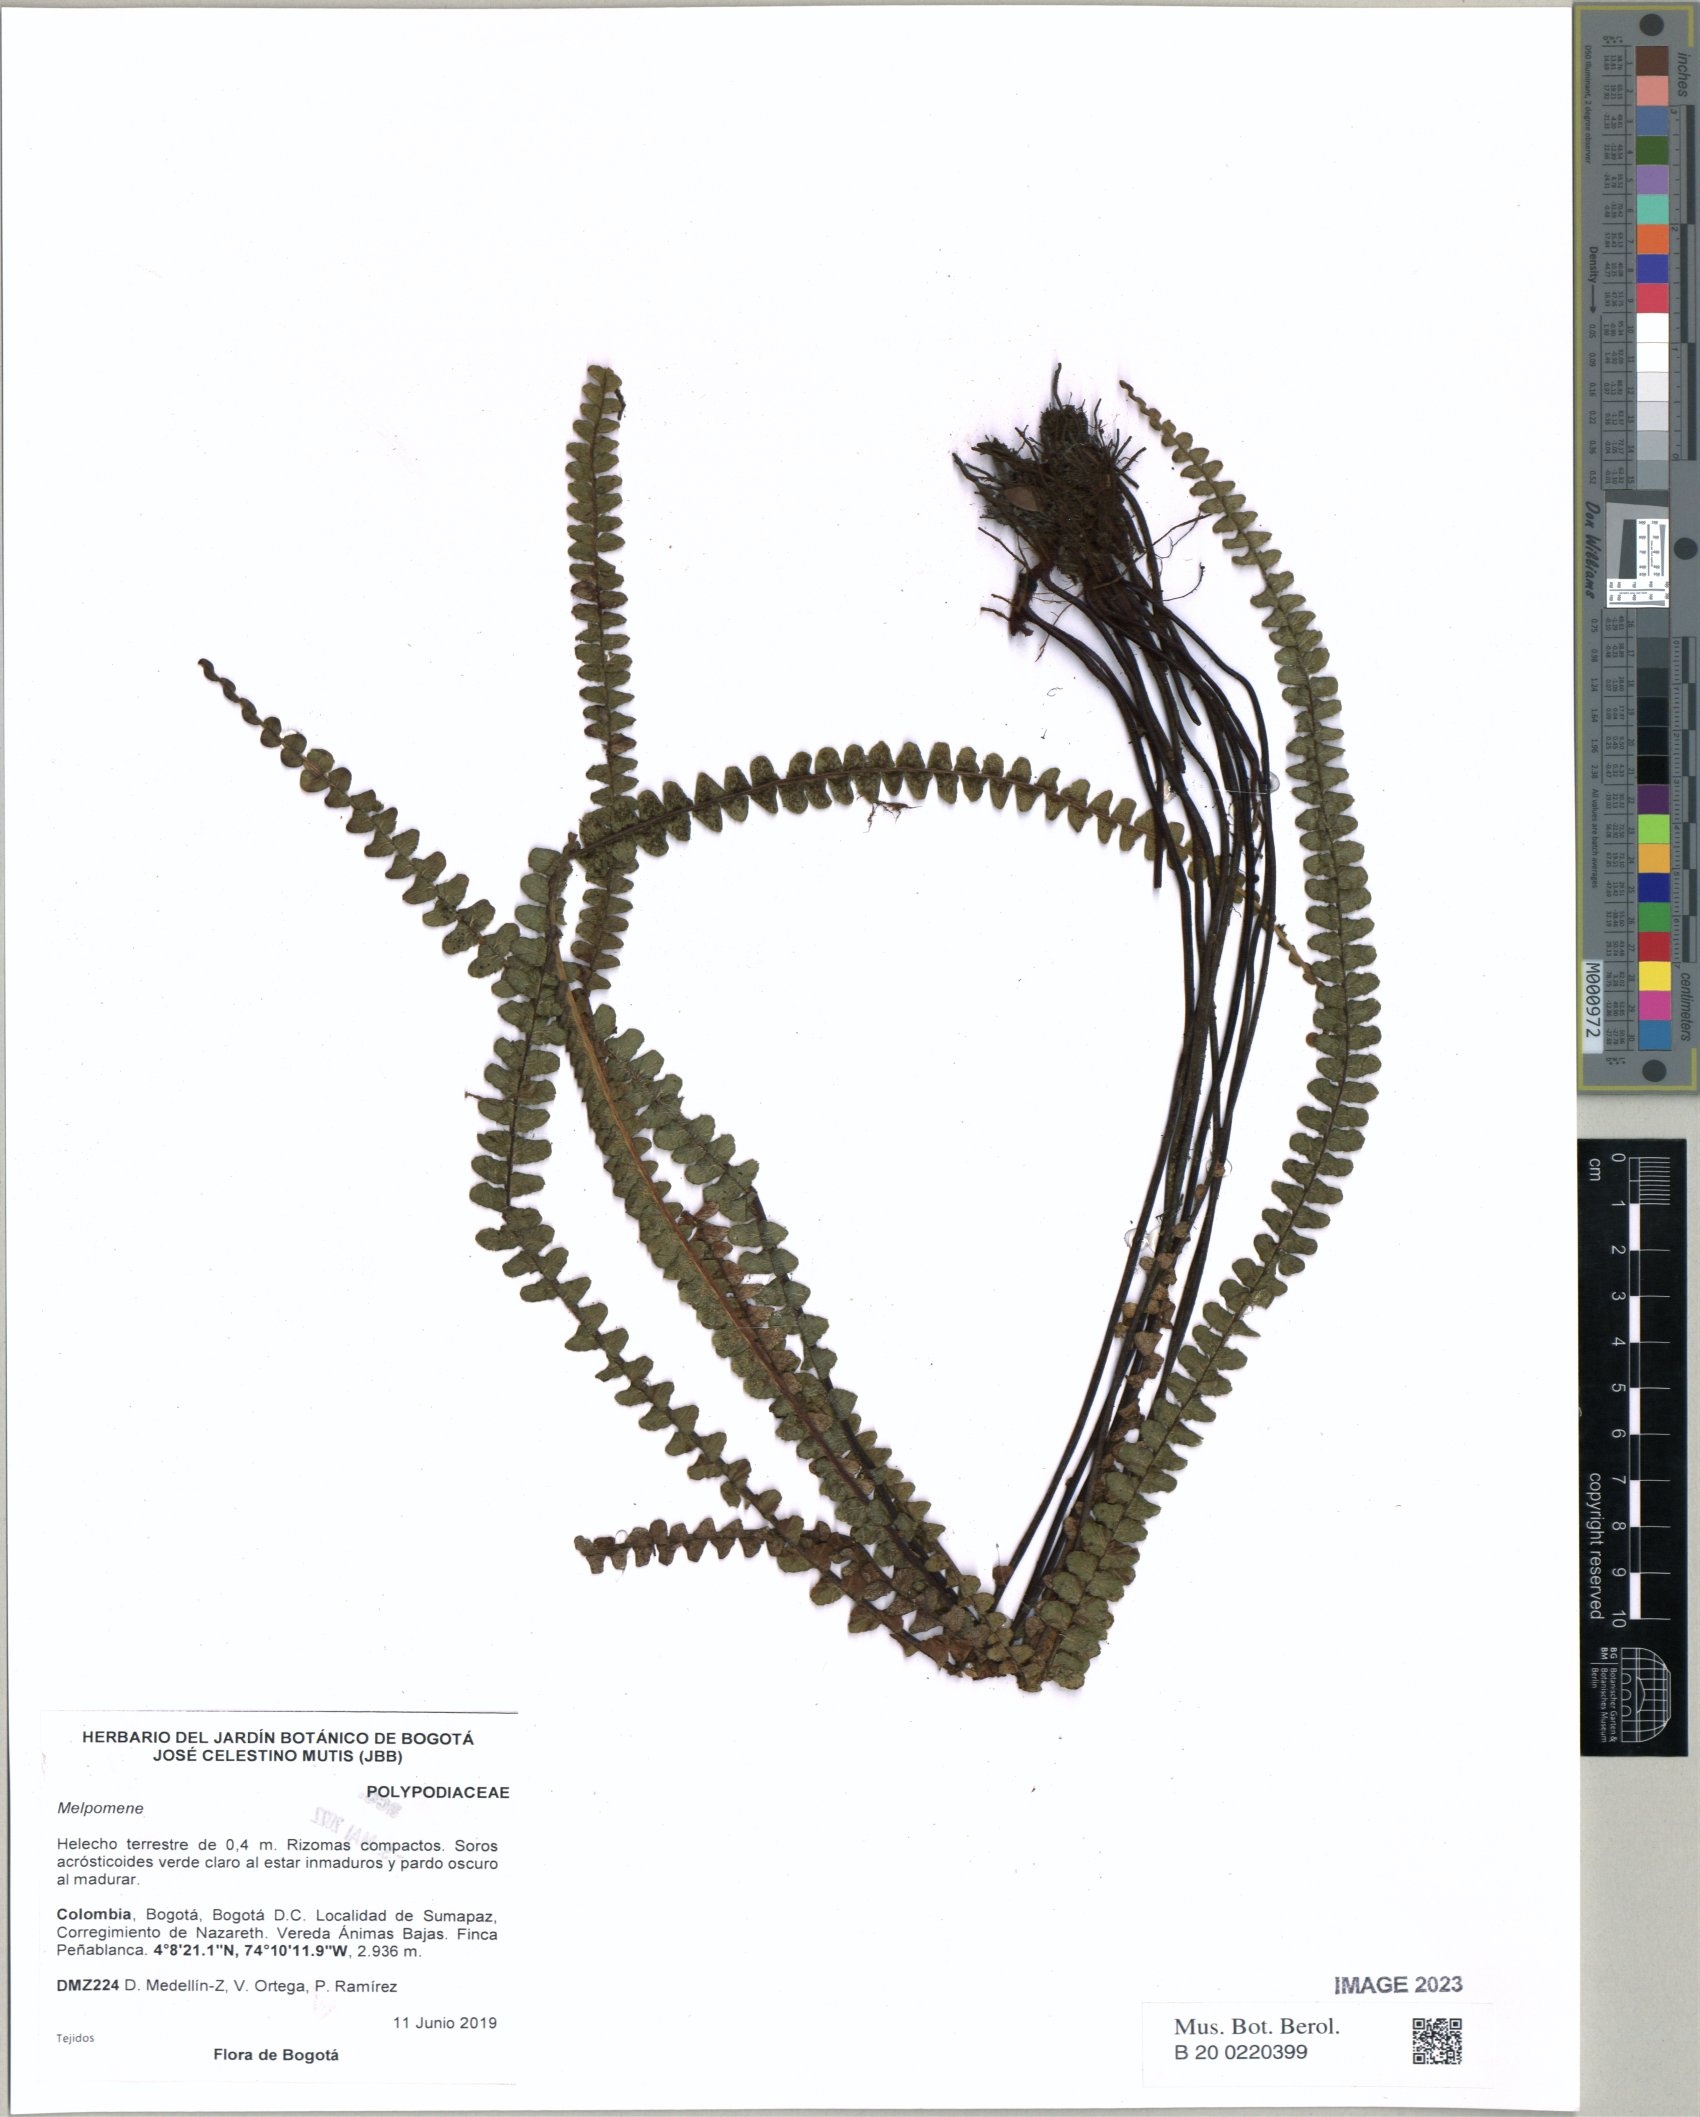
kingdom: Plantae
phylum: Tracheophyta
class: Polypodiopsida
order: Polypodiales
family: Polypodiaceae
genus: Melpomene
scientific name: Melpomene
